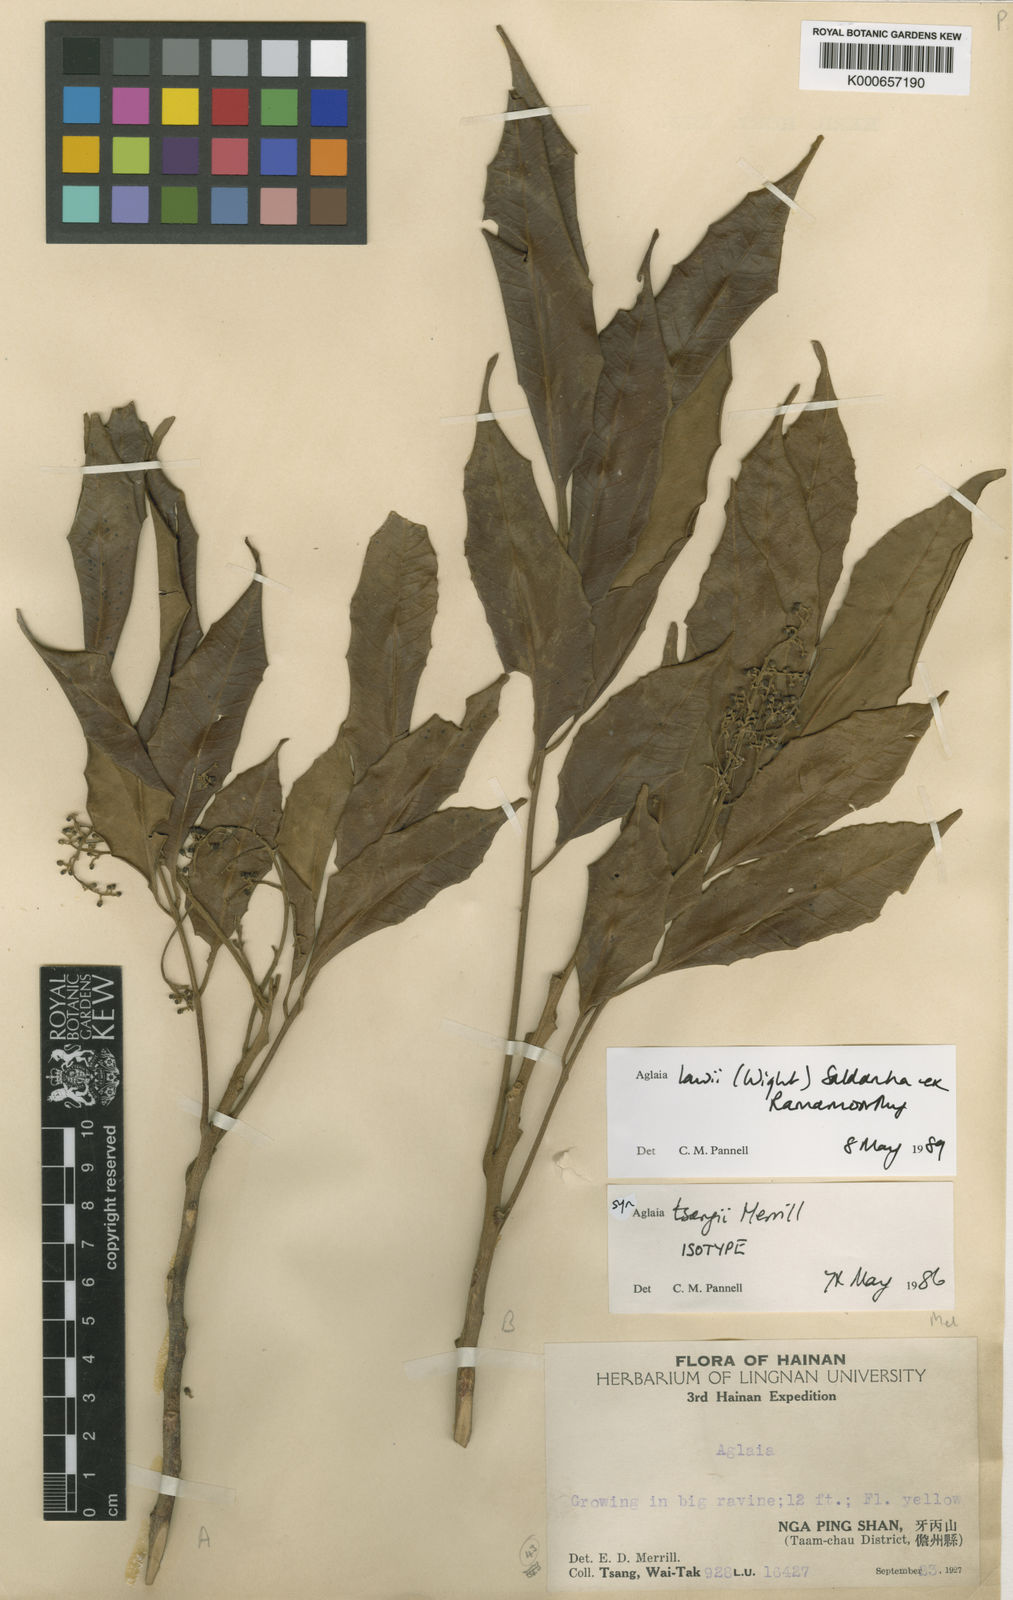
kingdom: Plantae
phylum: Tracheophyta
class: Magnoliopsida
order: Sapindales
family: Meliaceae
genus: Aglaia
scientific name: Aglaia
